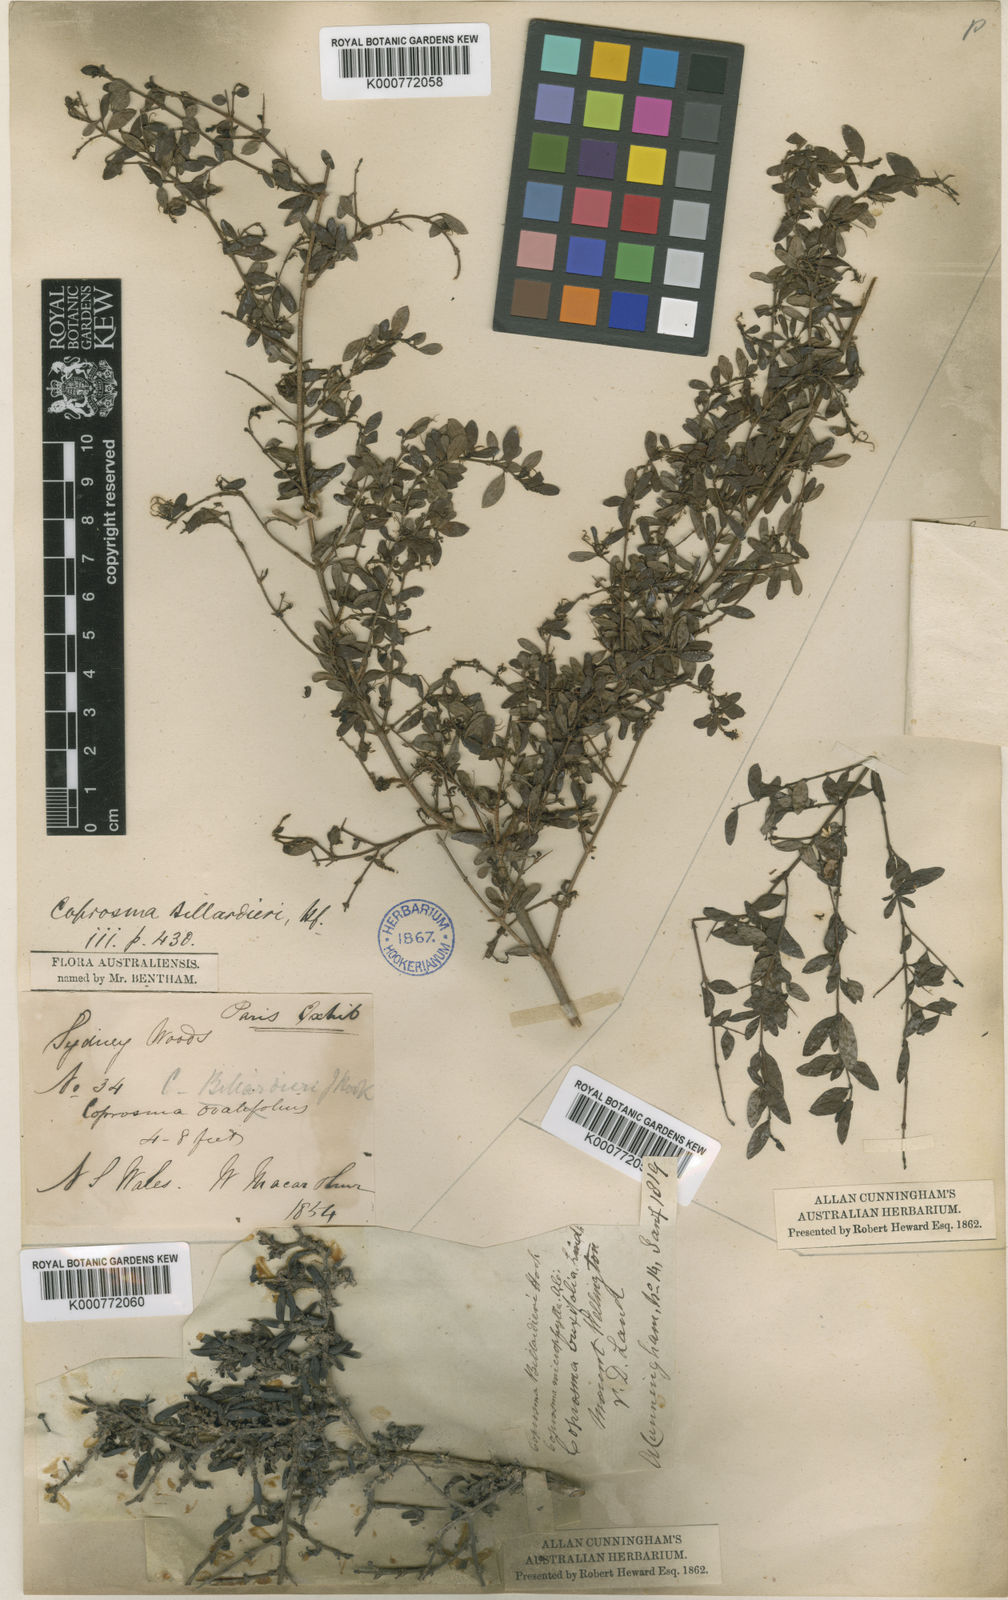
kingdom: Plantae
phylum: Tracheophyta
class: Magnoliopsida
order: Gentianales
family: Rubiaceae
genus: Coprosma
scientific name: Coprosma quadrifida
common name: Prickly currantbush
